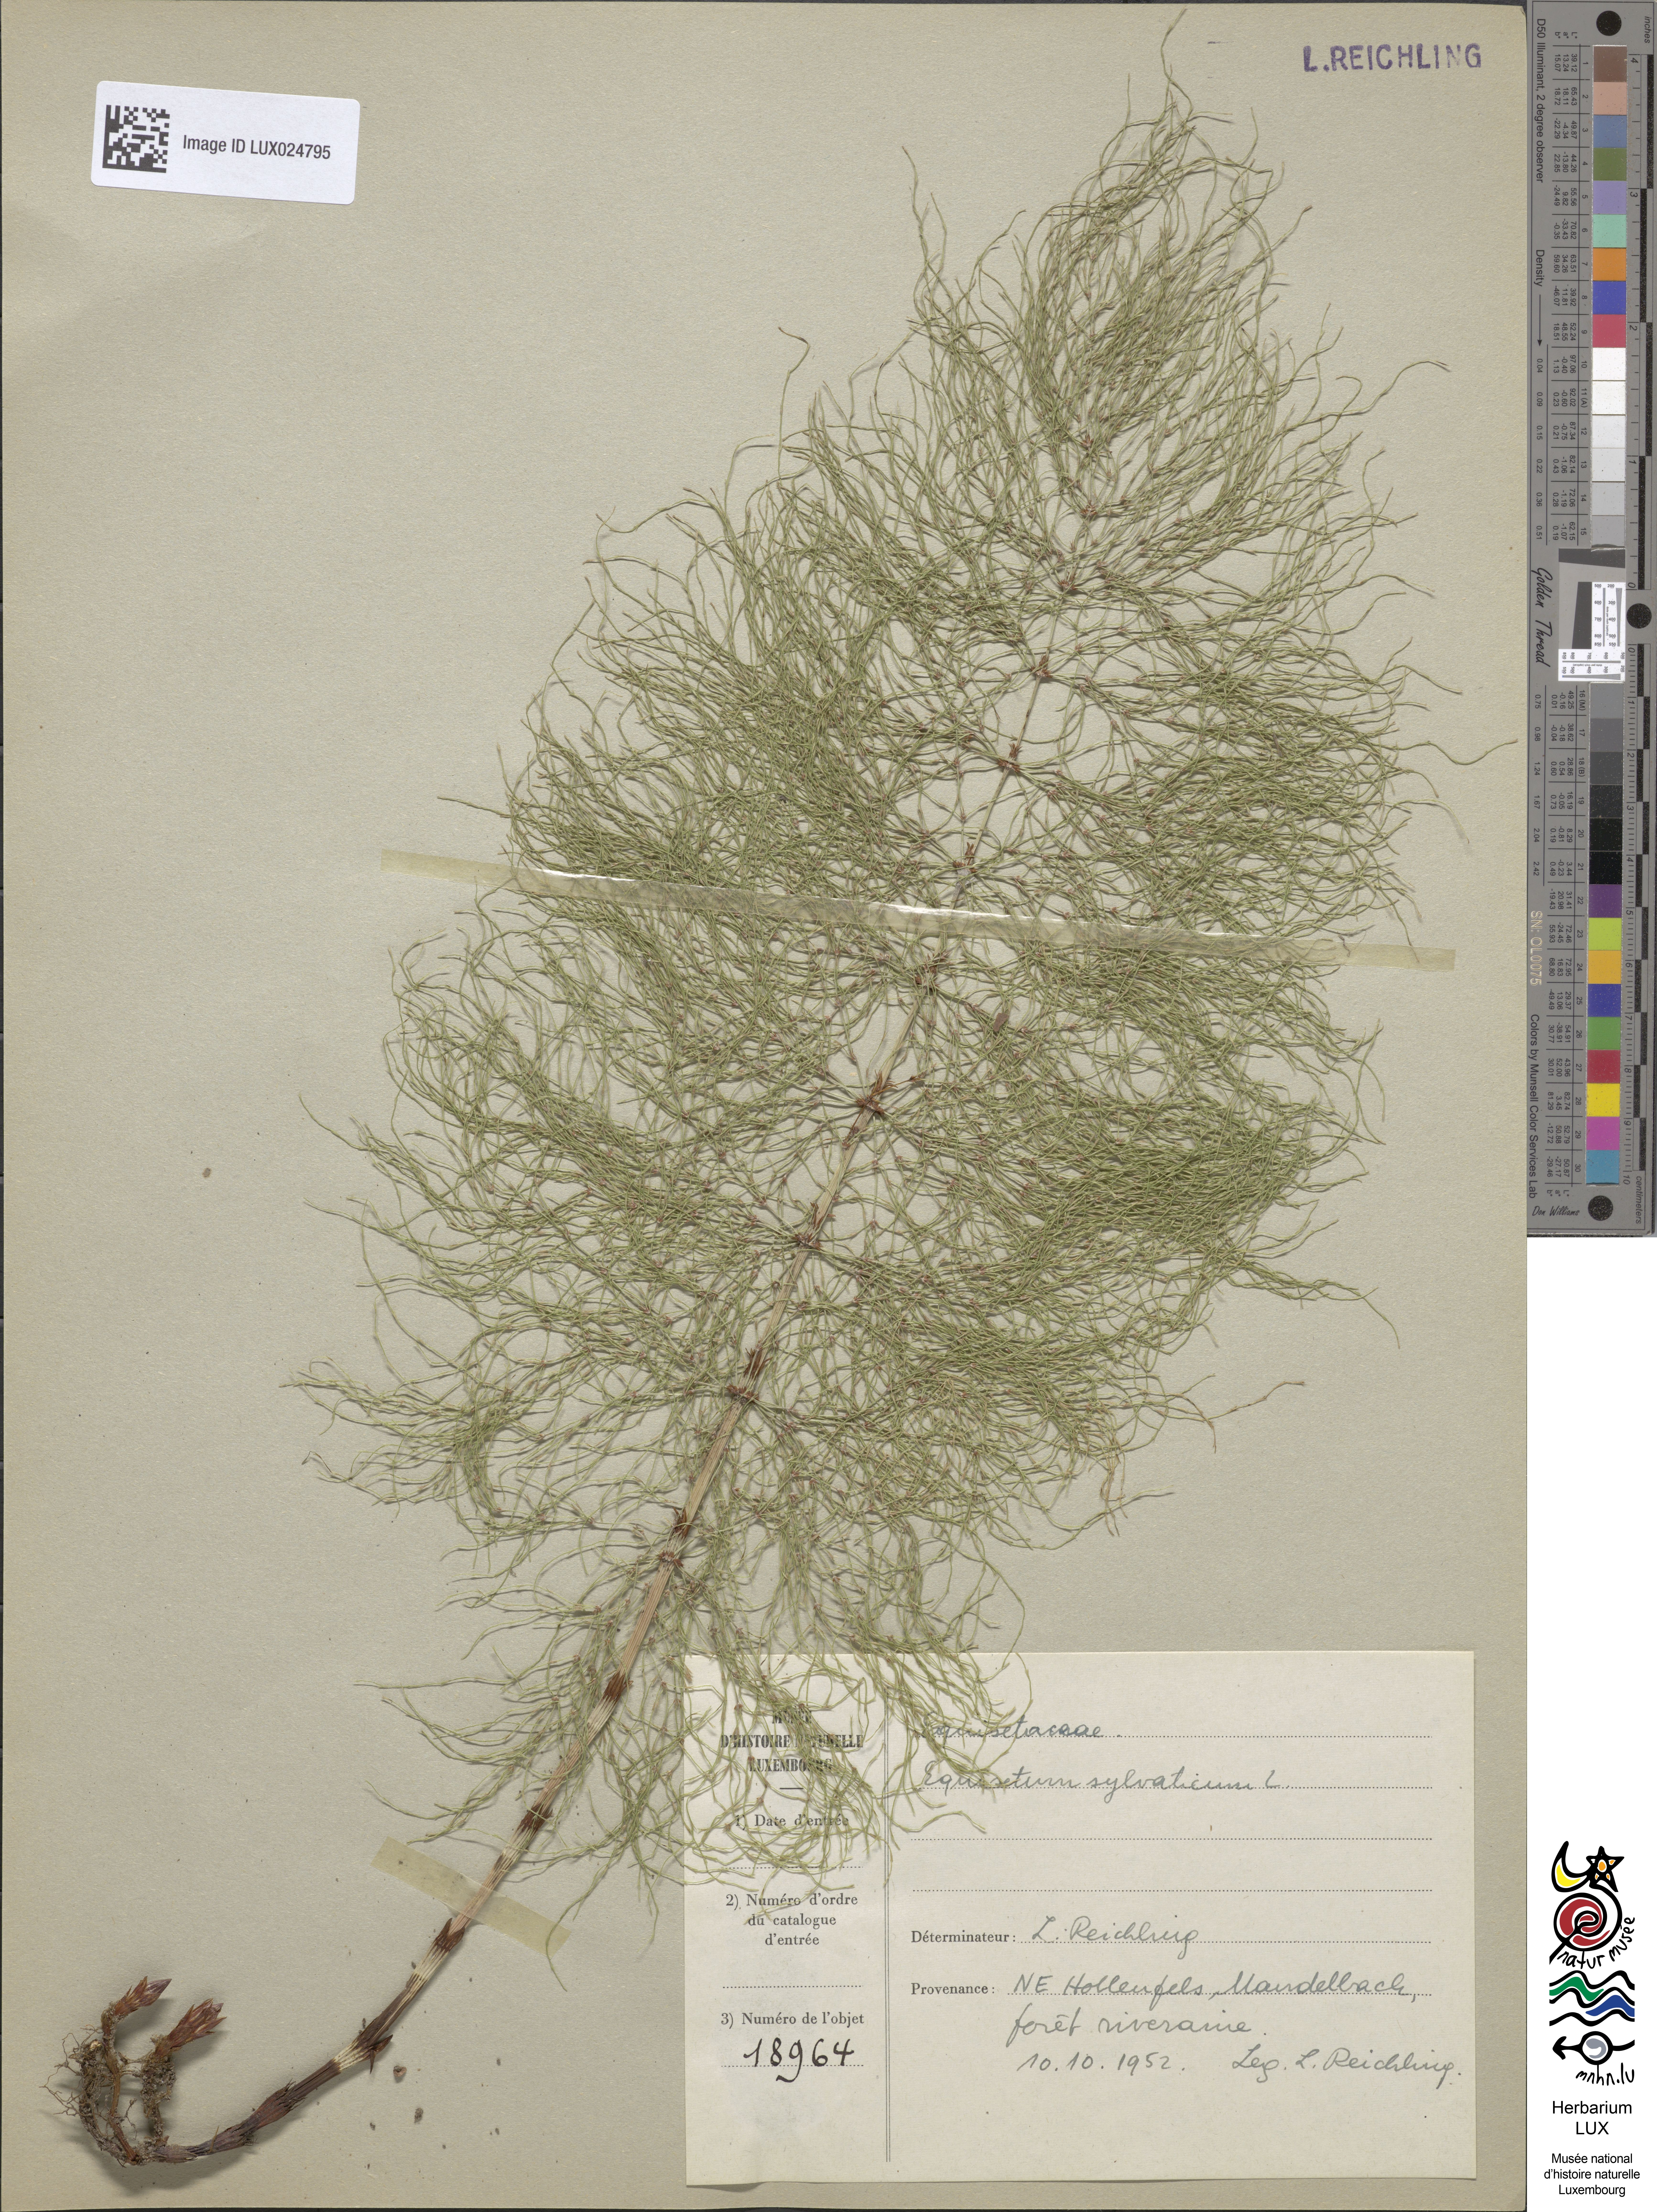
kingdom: Plantae
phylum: Tracheophyta
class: Polypodiopsida
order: Equisetales
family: Equisetaceae
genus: Equisetum
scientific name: Equisetum sylvaticum
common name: Wood horsetail
